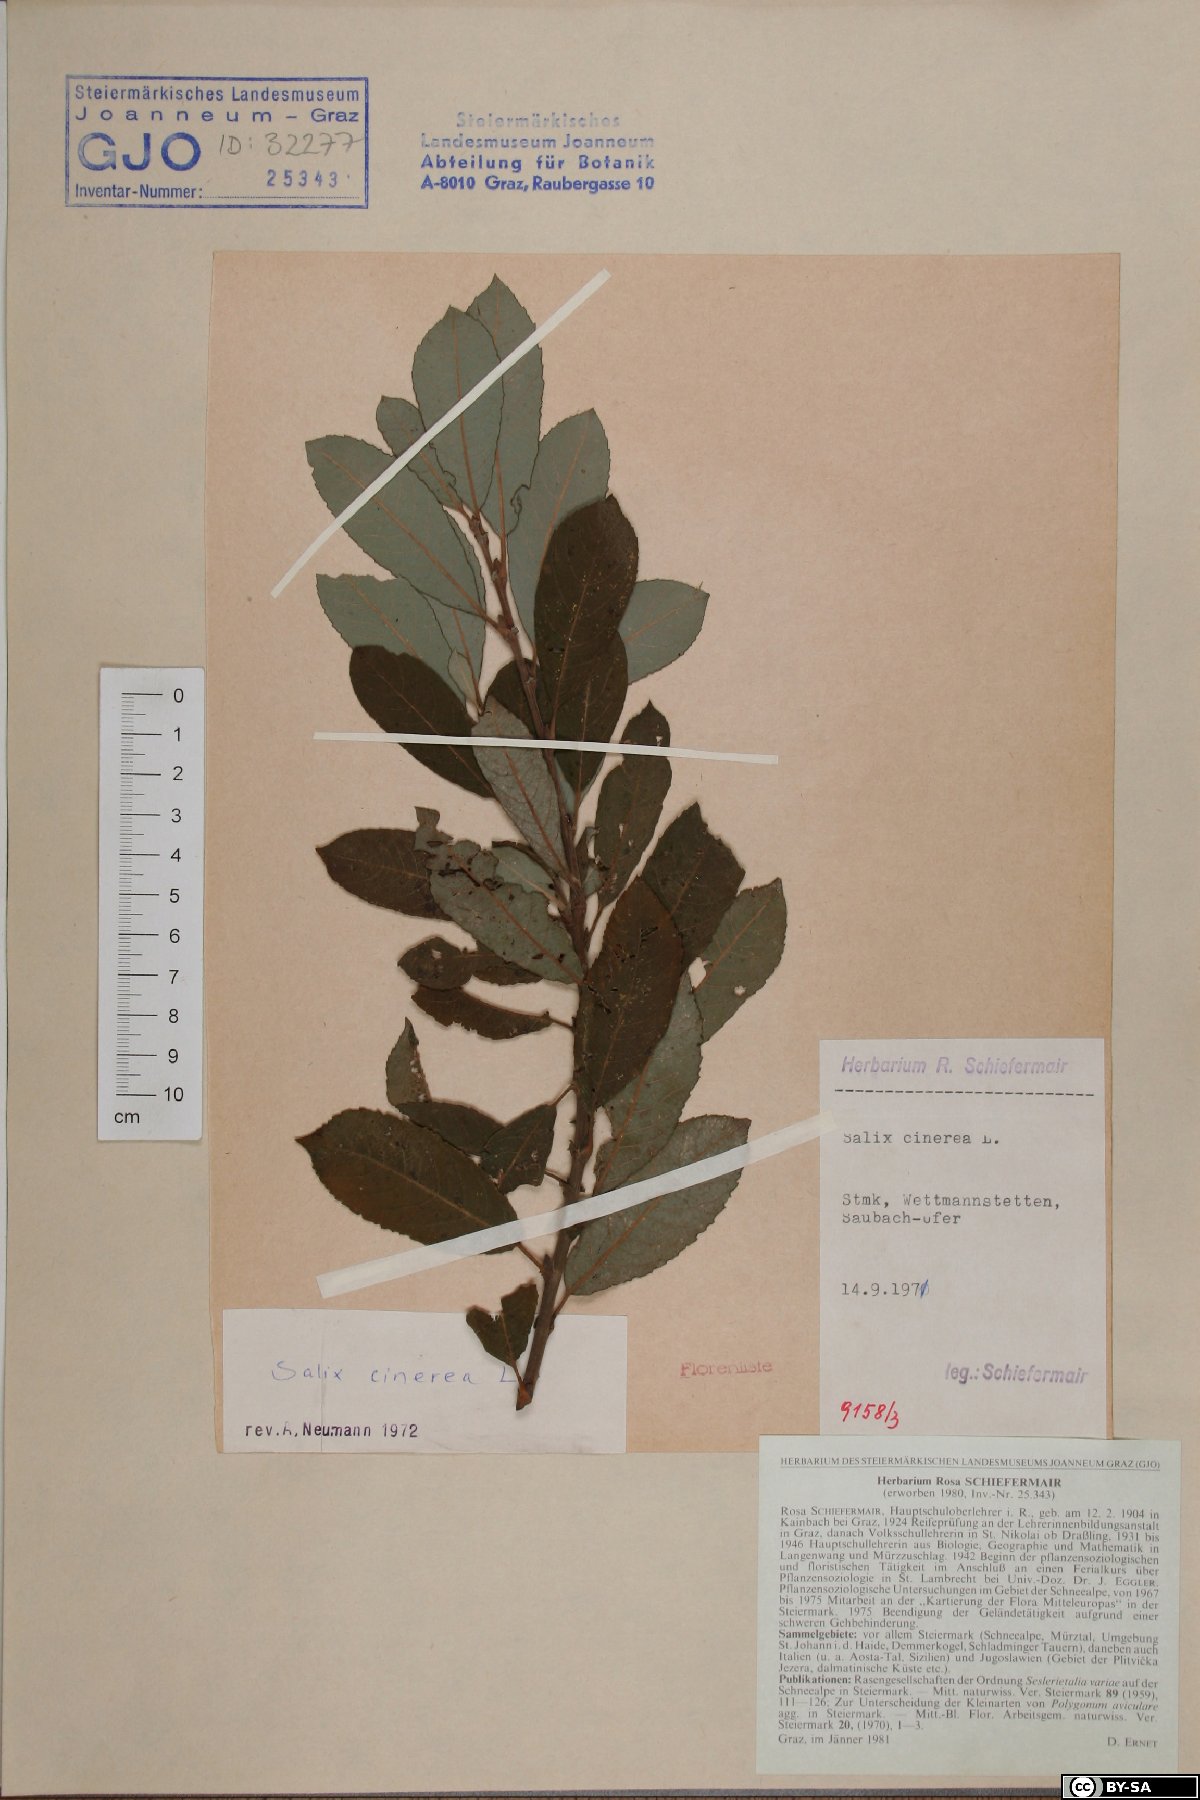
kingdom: Plantae
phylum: Tracheophyta
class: Magnoliopsida
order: Malpighiales
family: Salicaceae
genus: Salix
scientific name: Salix cinerea
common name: Common sallow
